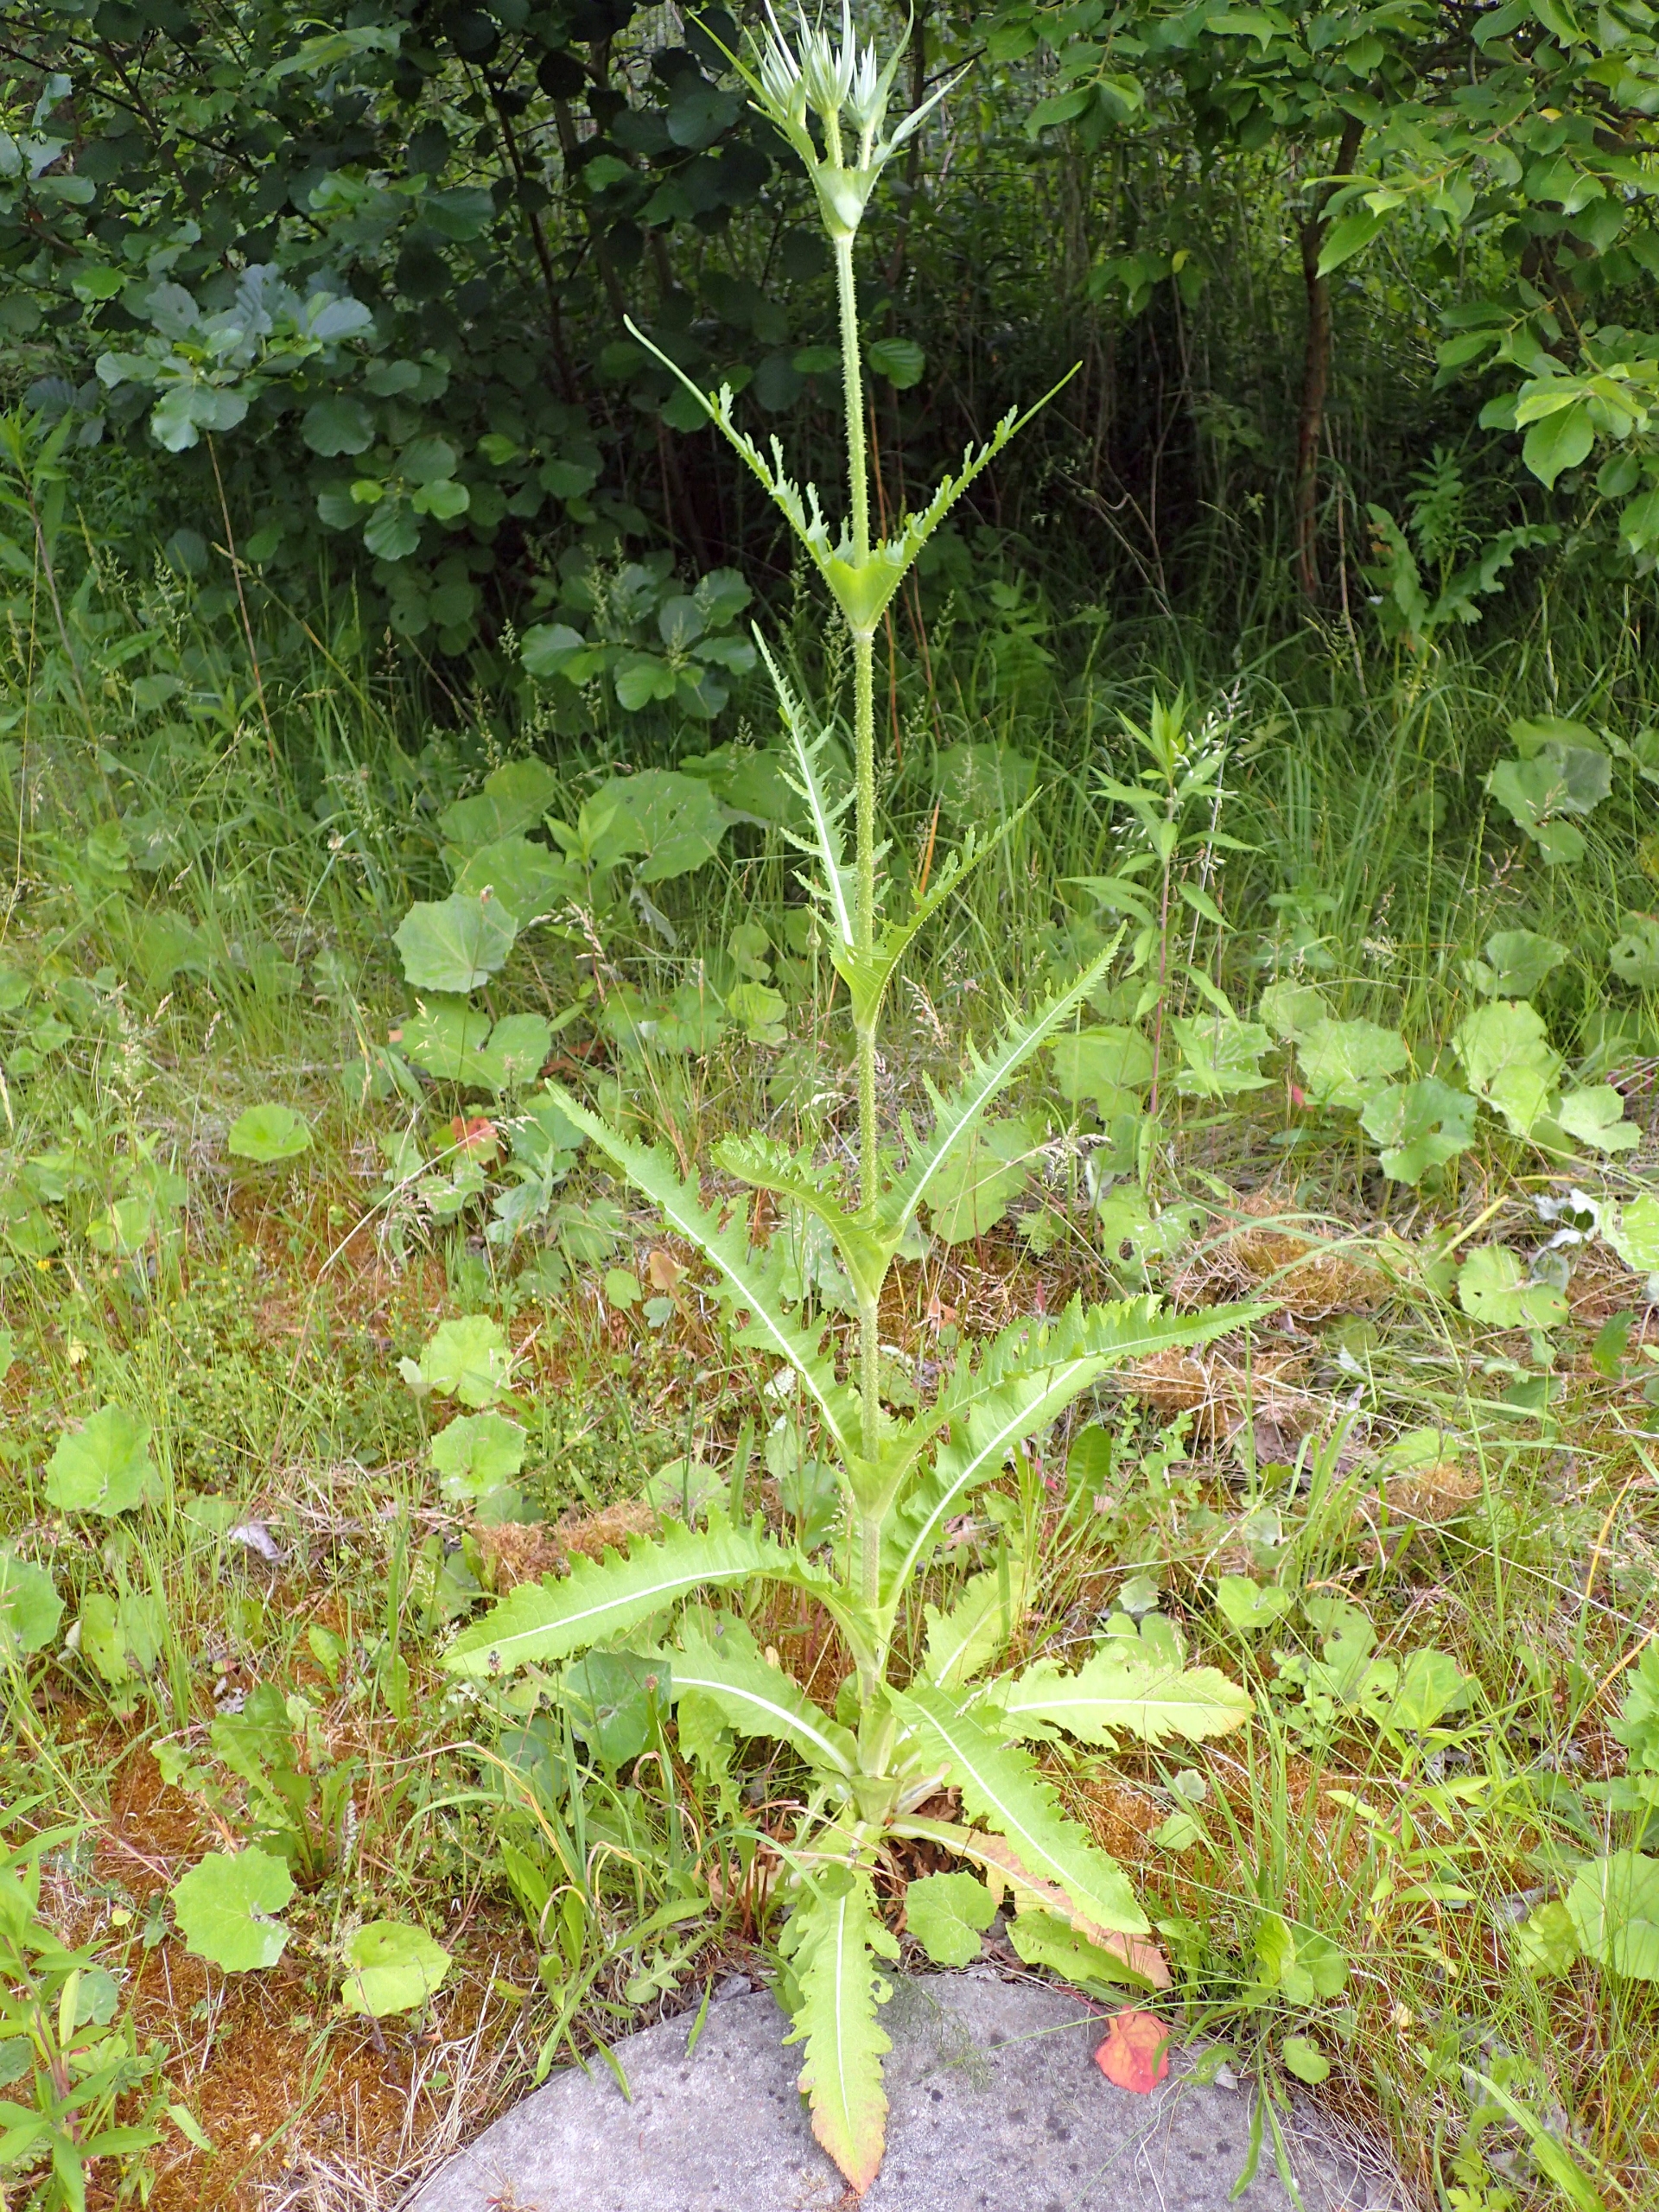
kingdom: Plantae
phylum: Tracheophyta
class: Magnoliopsida
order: Dipsacales
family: Caprifoliaceae
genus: Dipsacus
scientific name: Dipsacus laciniatus
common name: Fliget kartebolle
